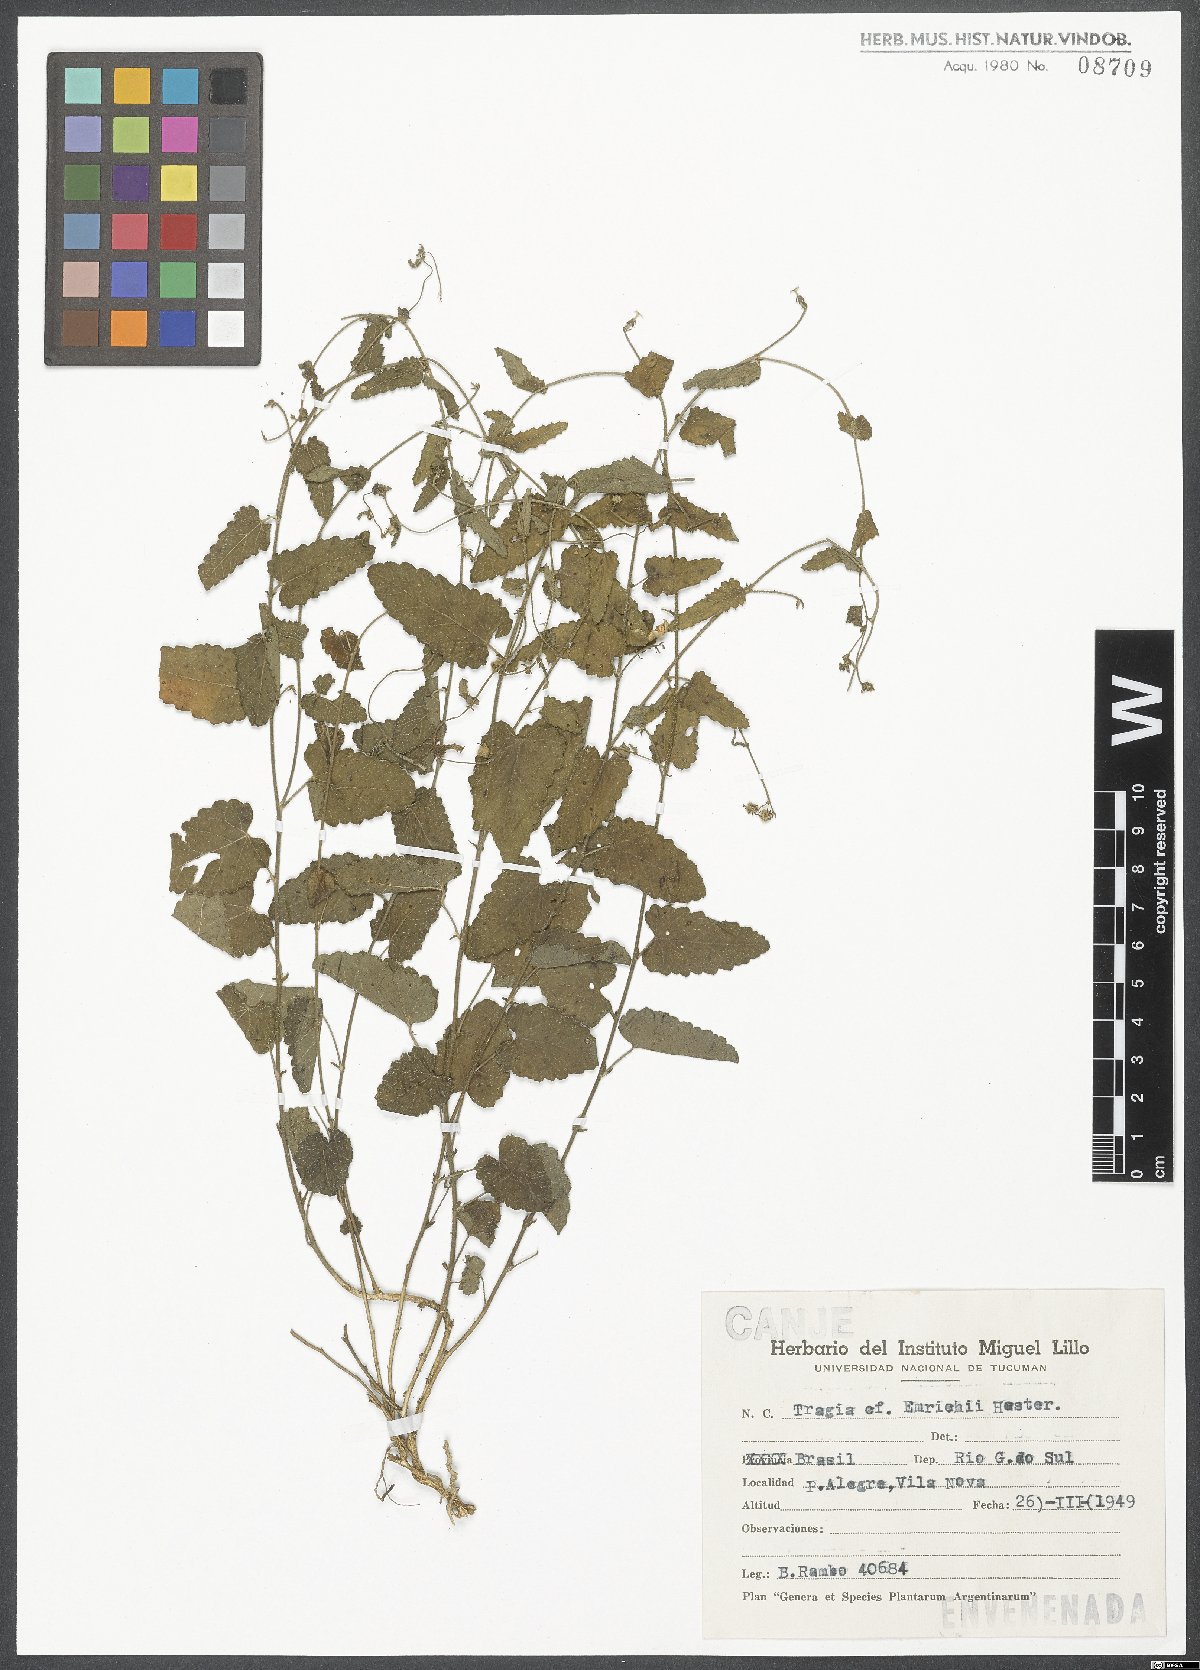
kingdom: Plantae
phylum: Tracheophyta
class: Magnoliopsida
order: Malpighiales
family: Euphorbiaceae
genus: Tragia
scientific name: Tragia bahiensis
